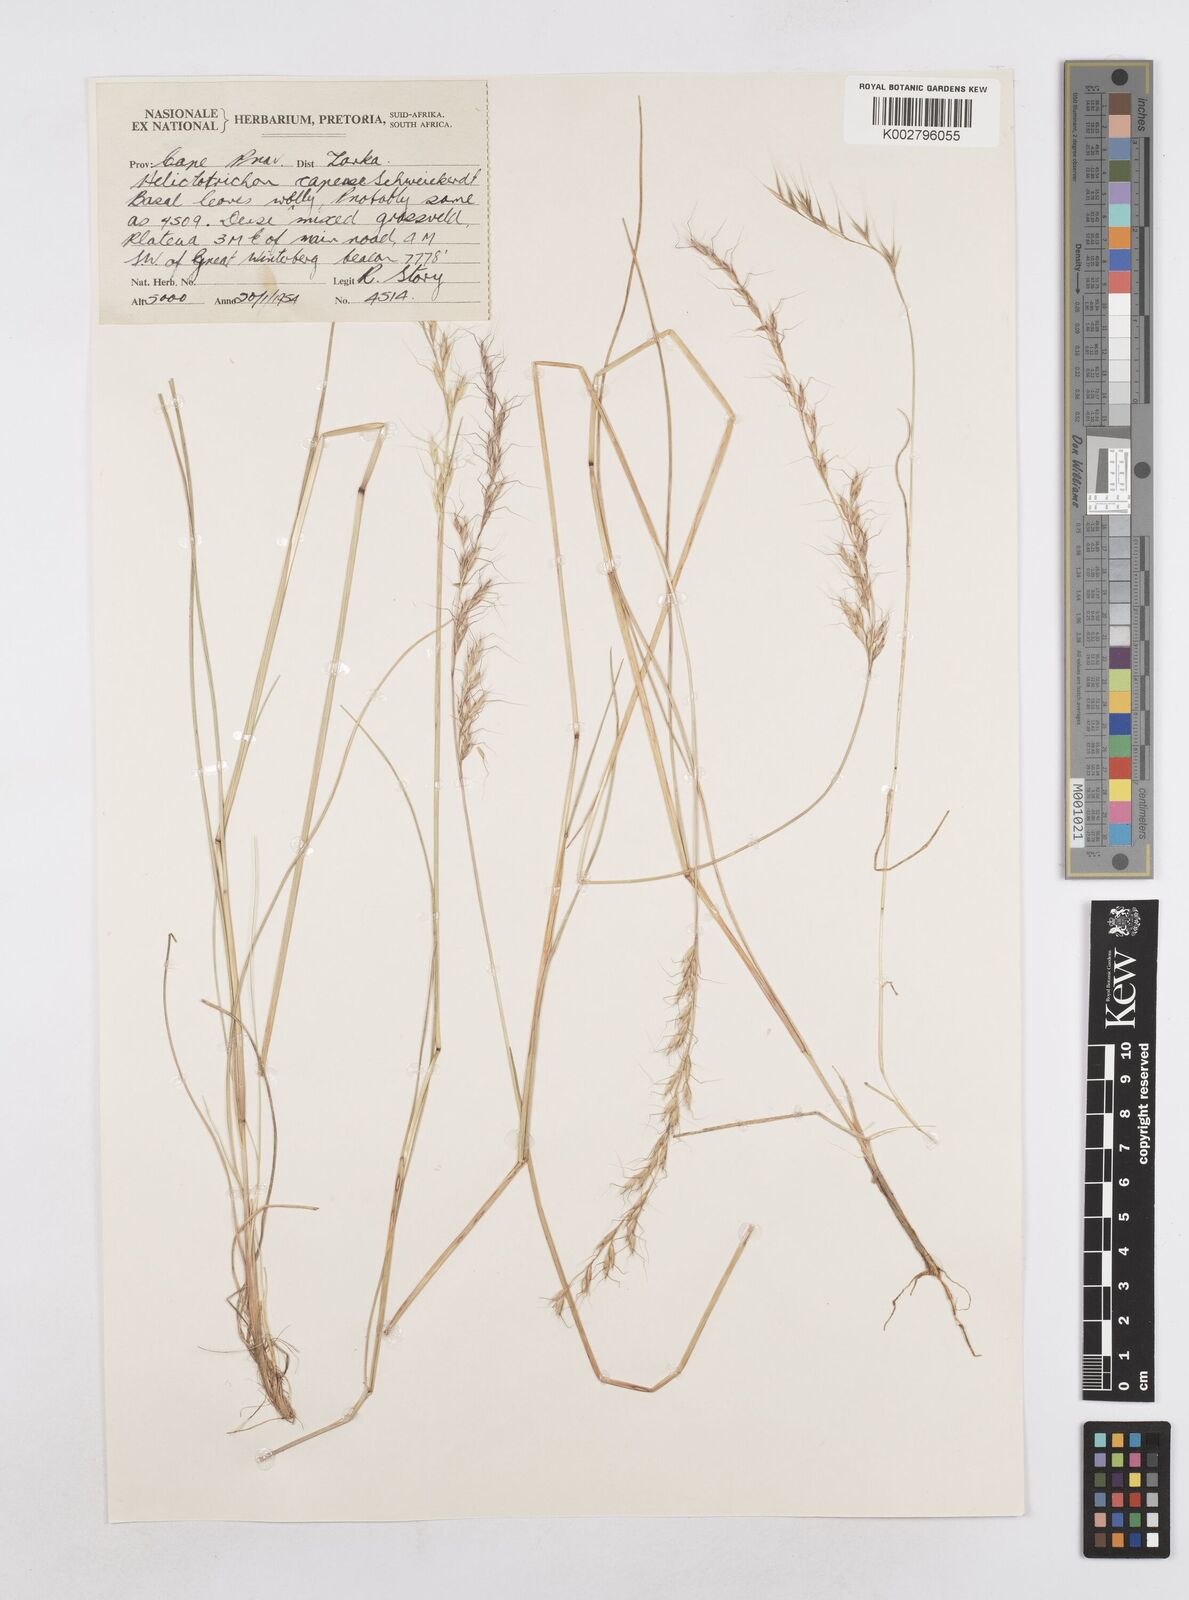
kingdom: Plantae
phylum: Tracheophyta
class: Liliopsida
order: Poales
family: Poaceae
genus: Trisetopsis
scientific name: Trisetopsis capensis
